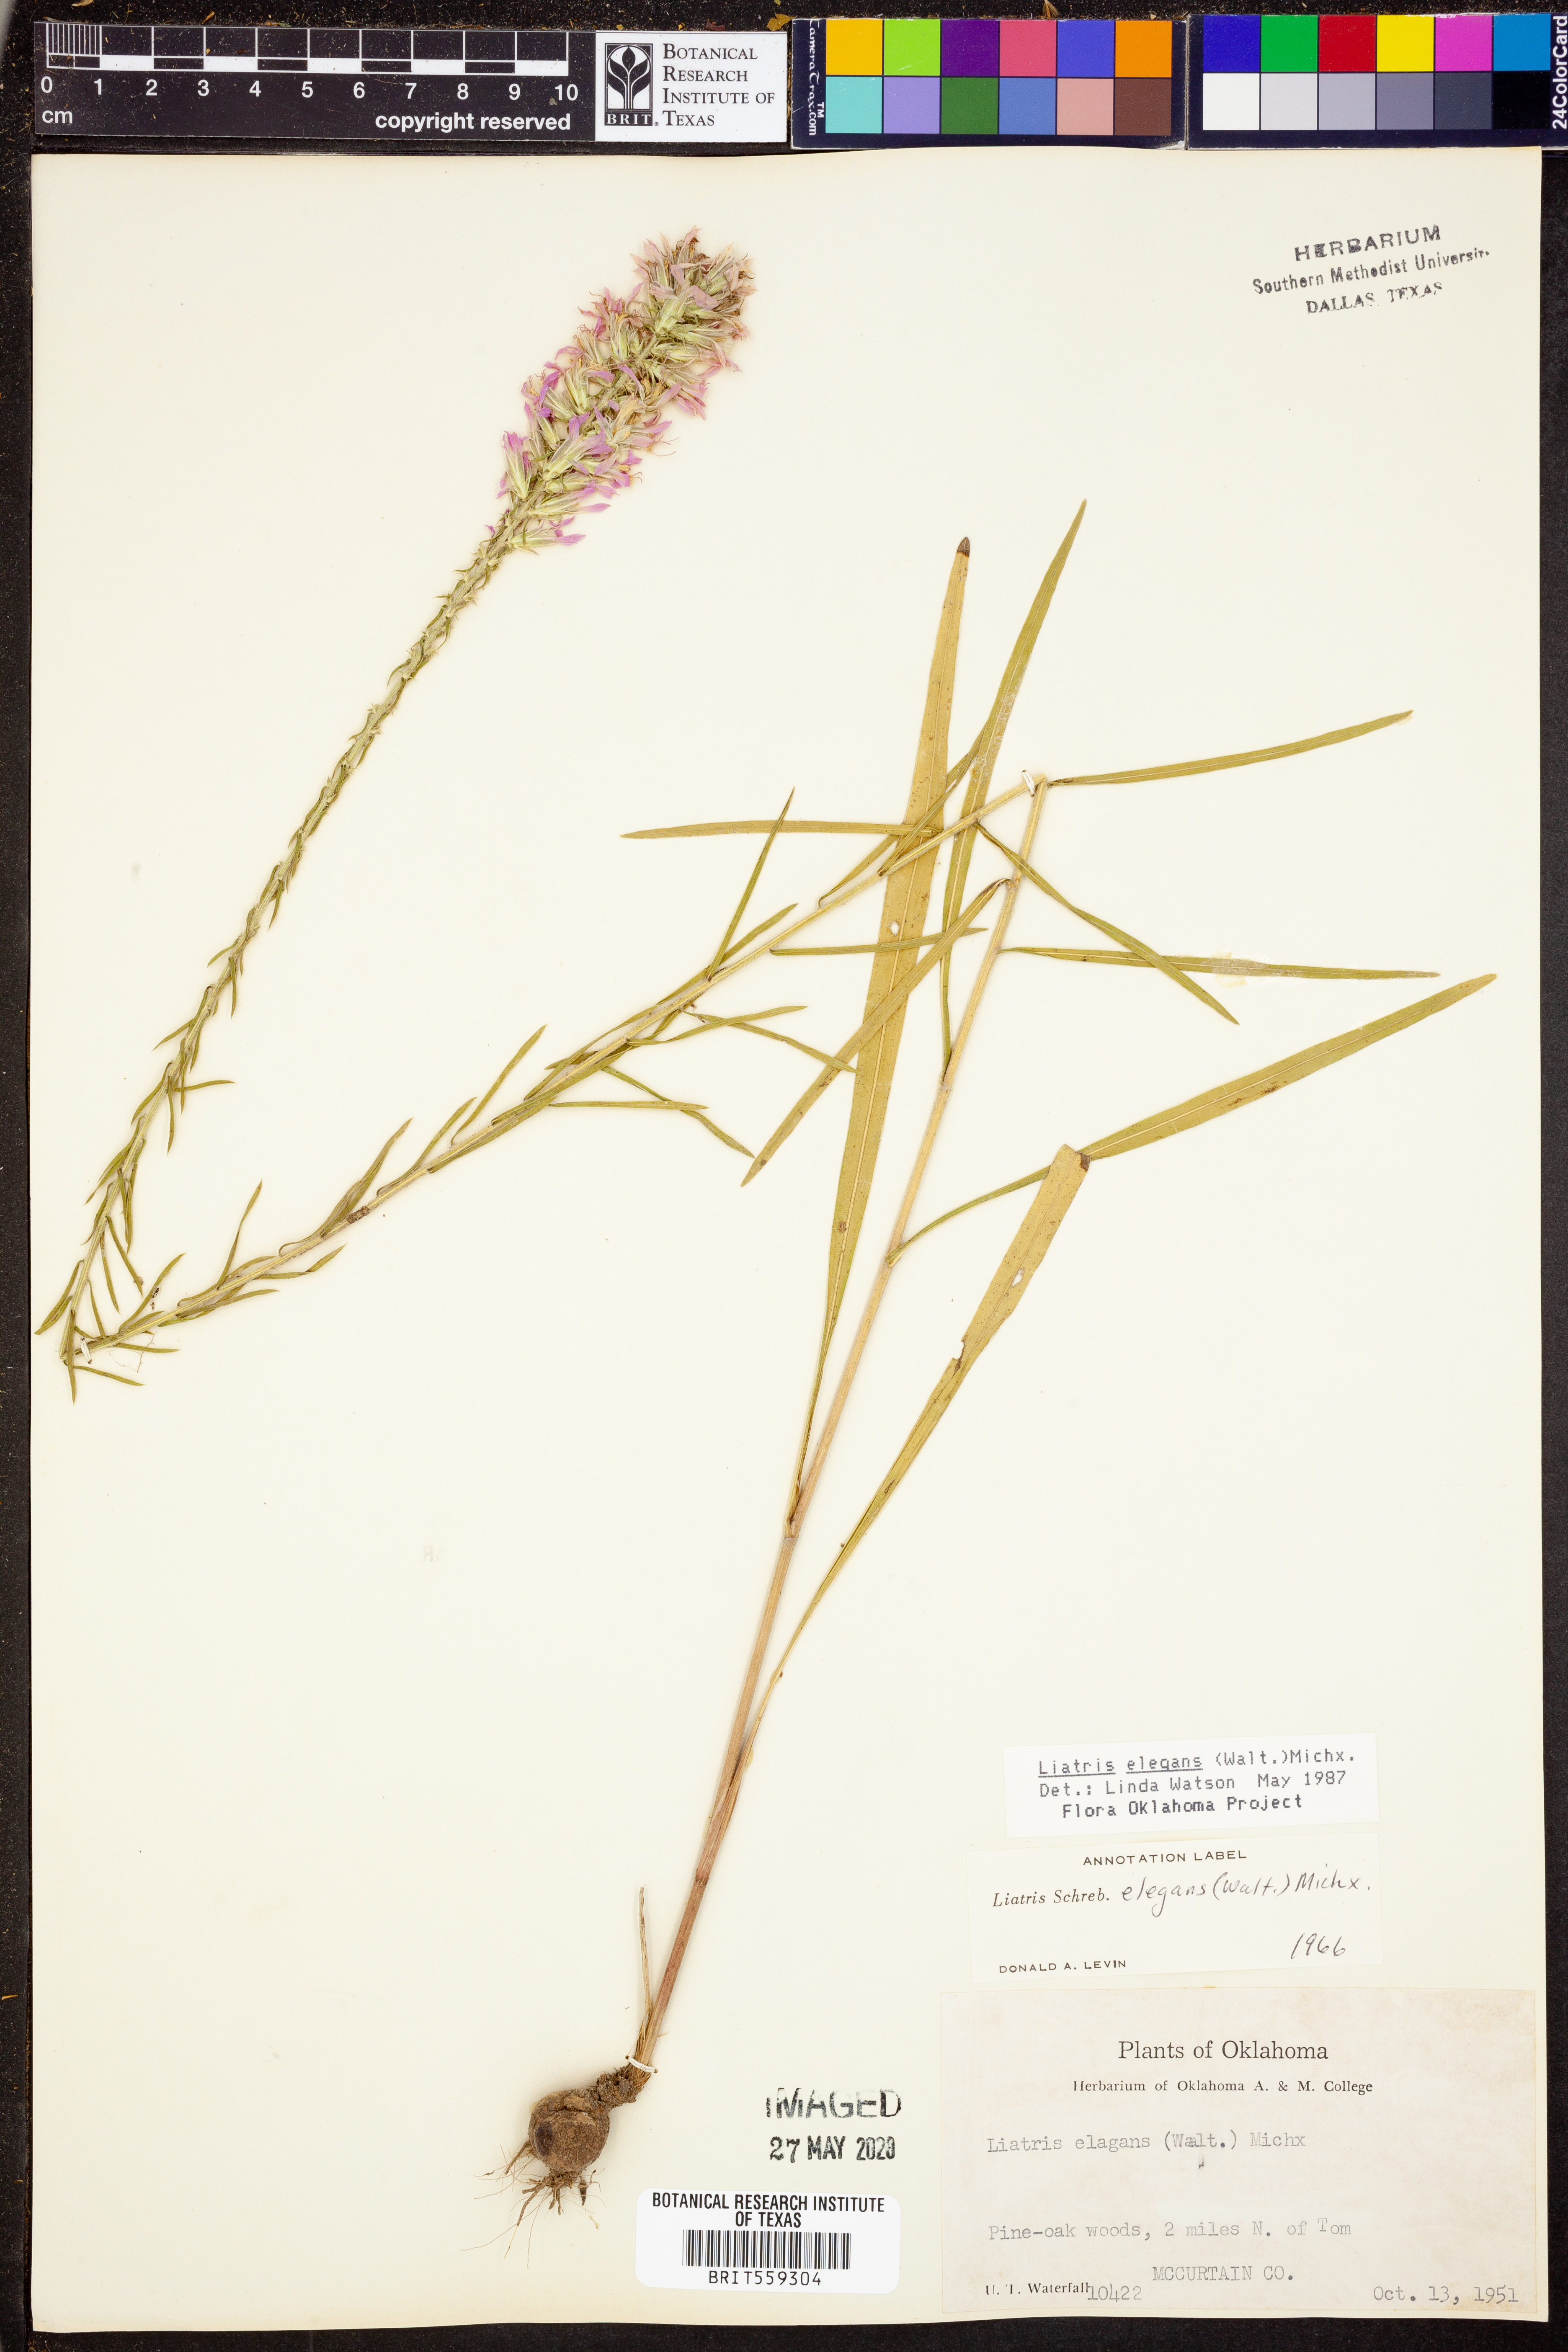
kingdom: Plantae
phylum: Tracheophyta
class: Magnoliopsida
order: Asterales
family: Asteraceae
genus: Liatris
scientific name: Liatris elegans
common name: Pinkscale gayfeather
